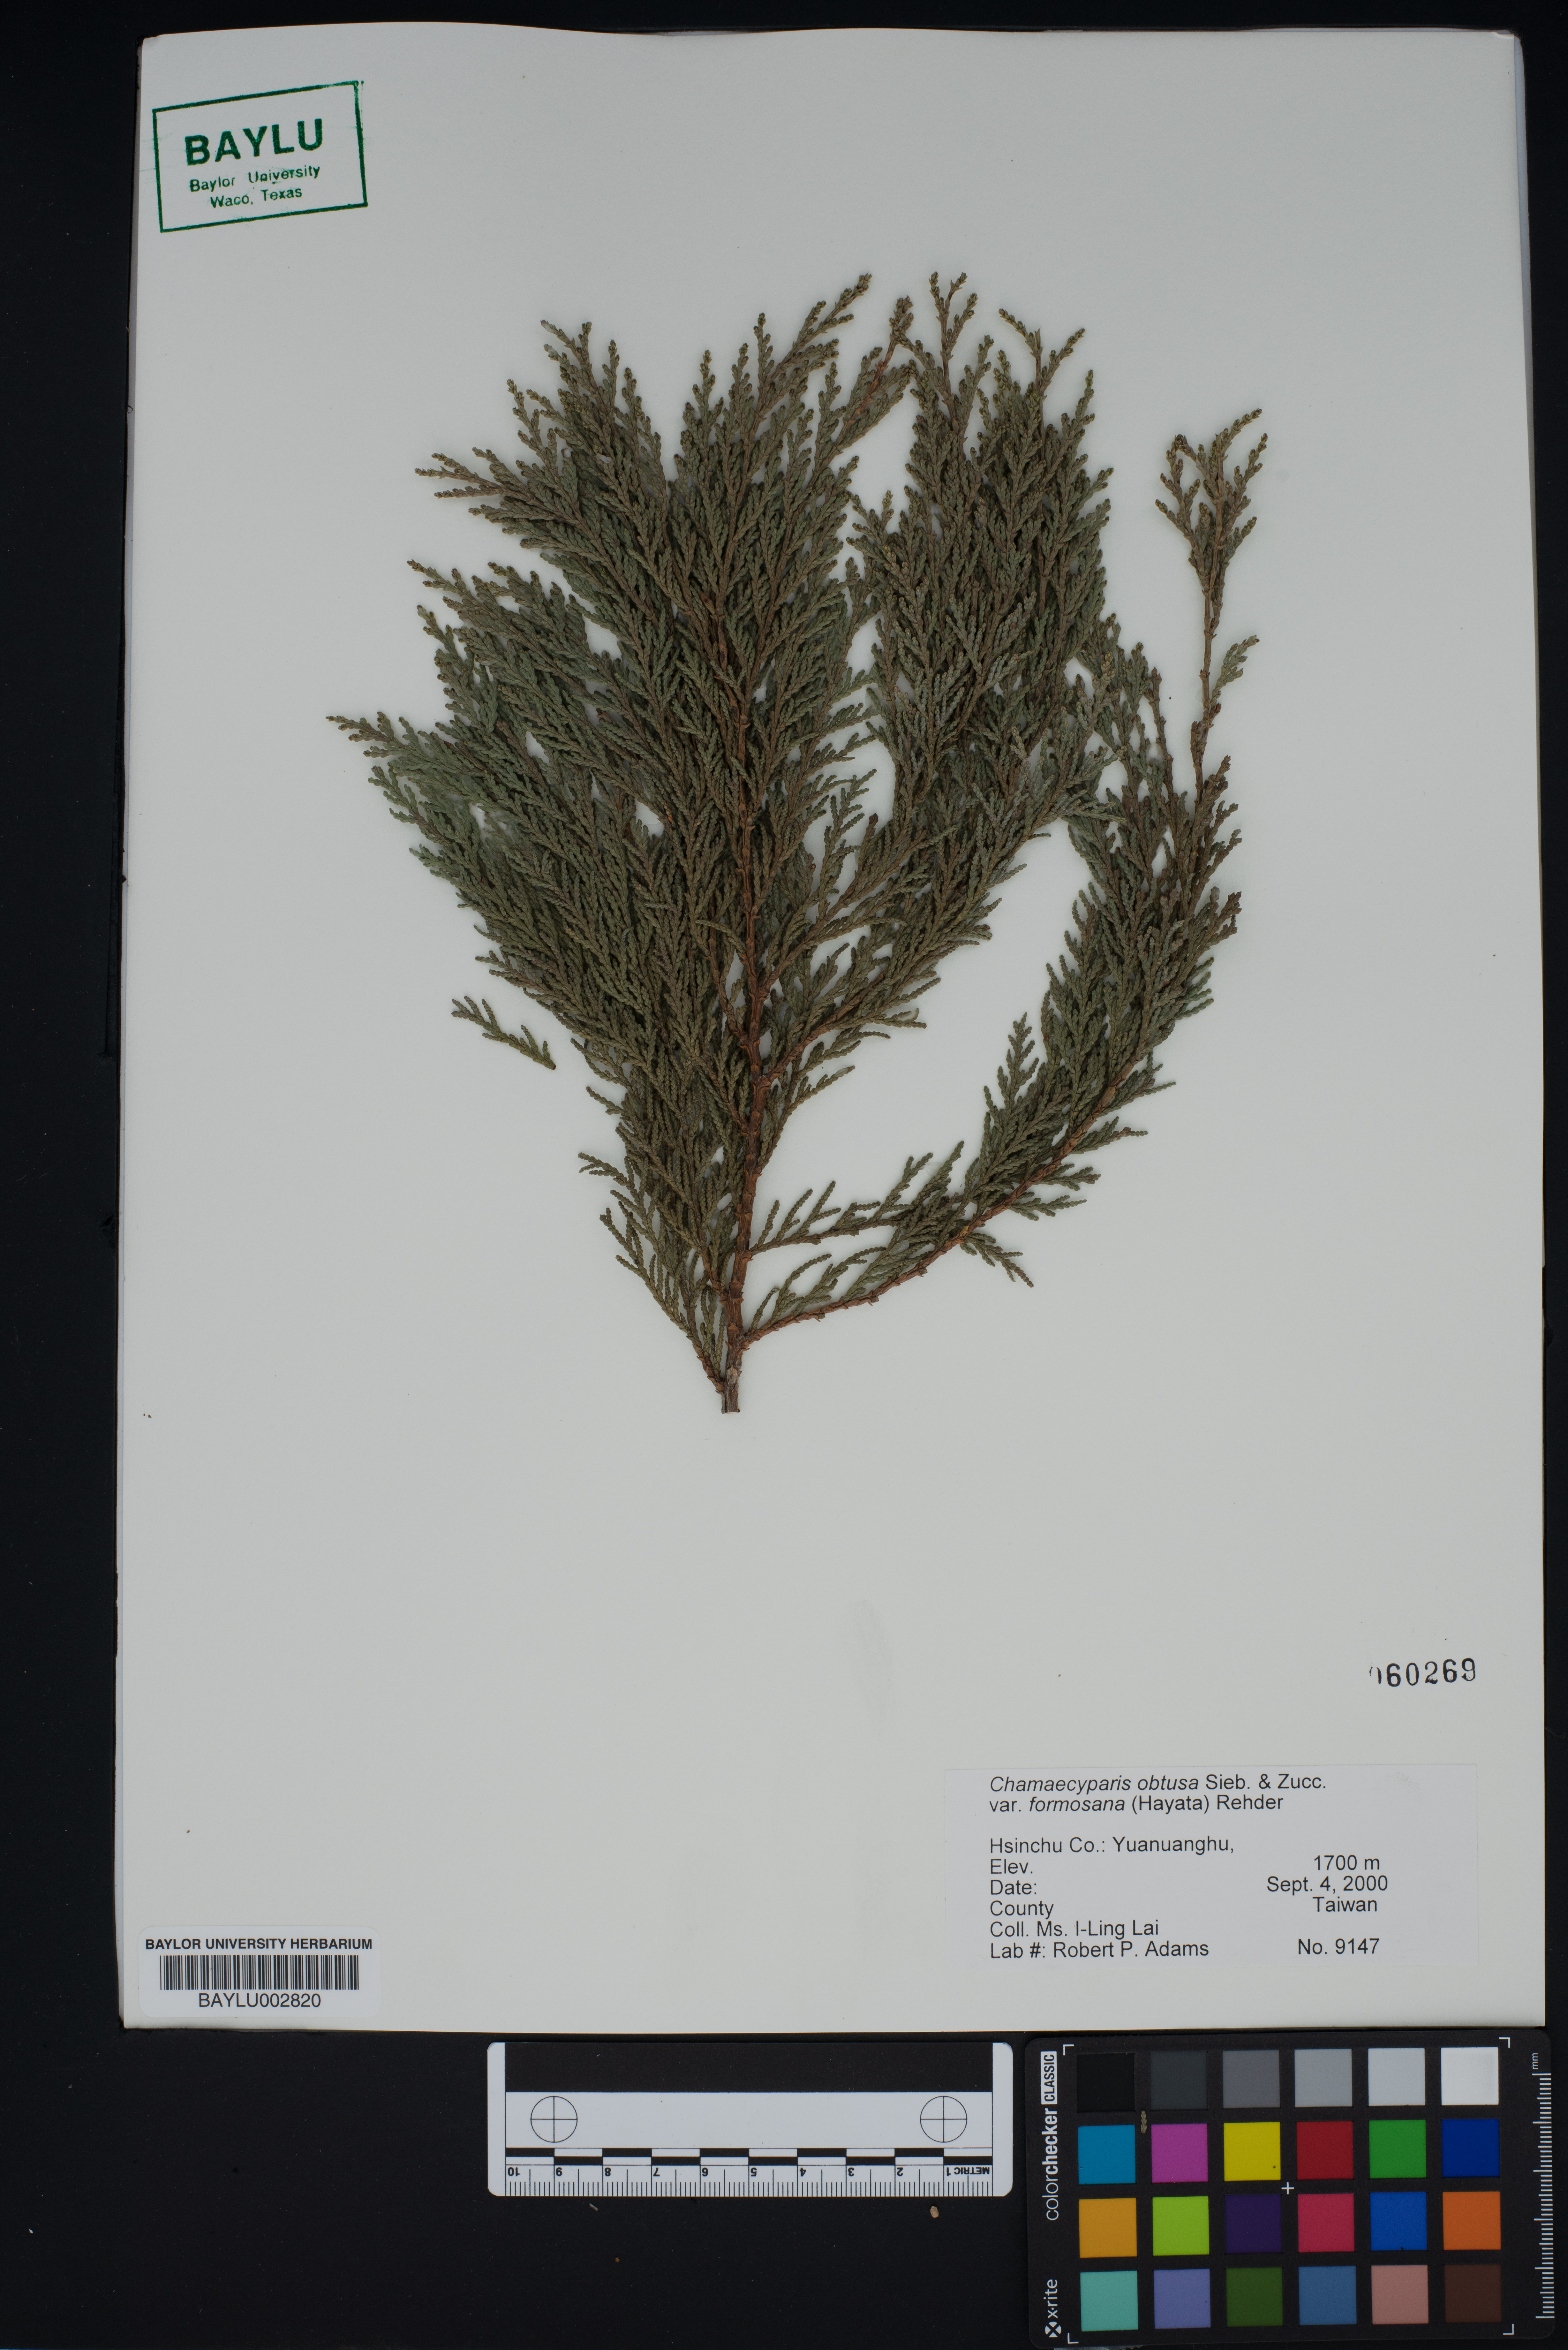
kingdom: Plantae
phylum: Tracheophyta
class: Pinopsida
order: Pinales
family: Cupressaceae
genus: Chamaecyparis
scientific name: Chamaecyparis obtusa
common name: Hinoki false cypress
